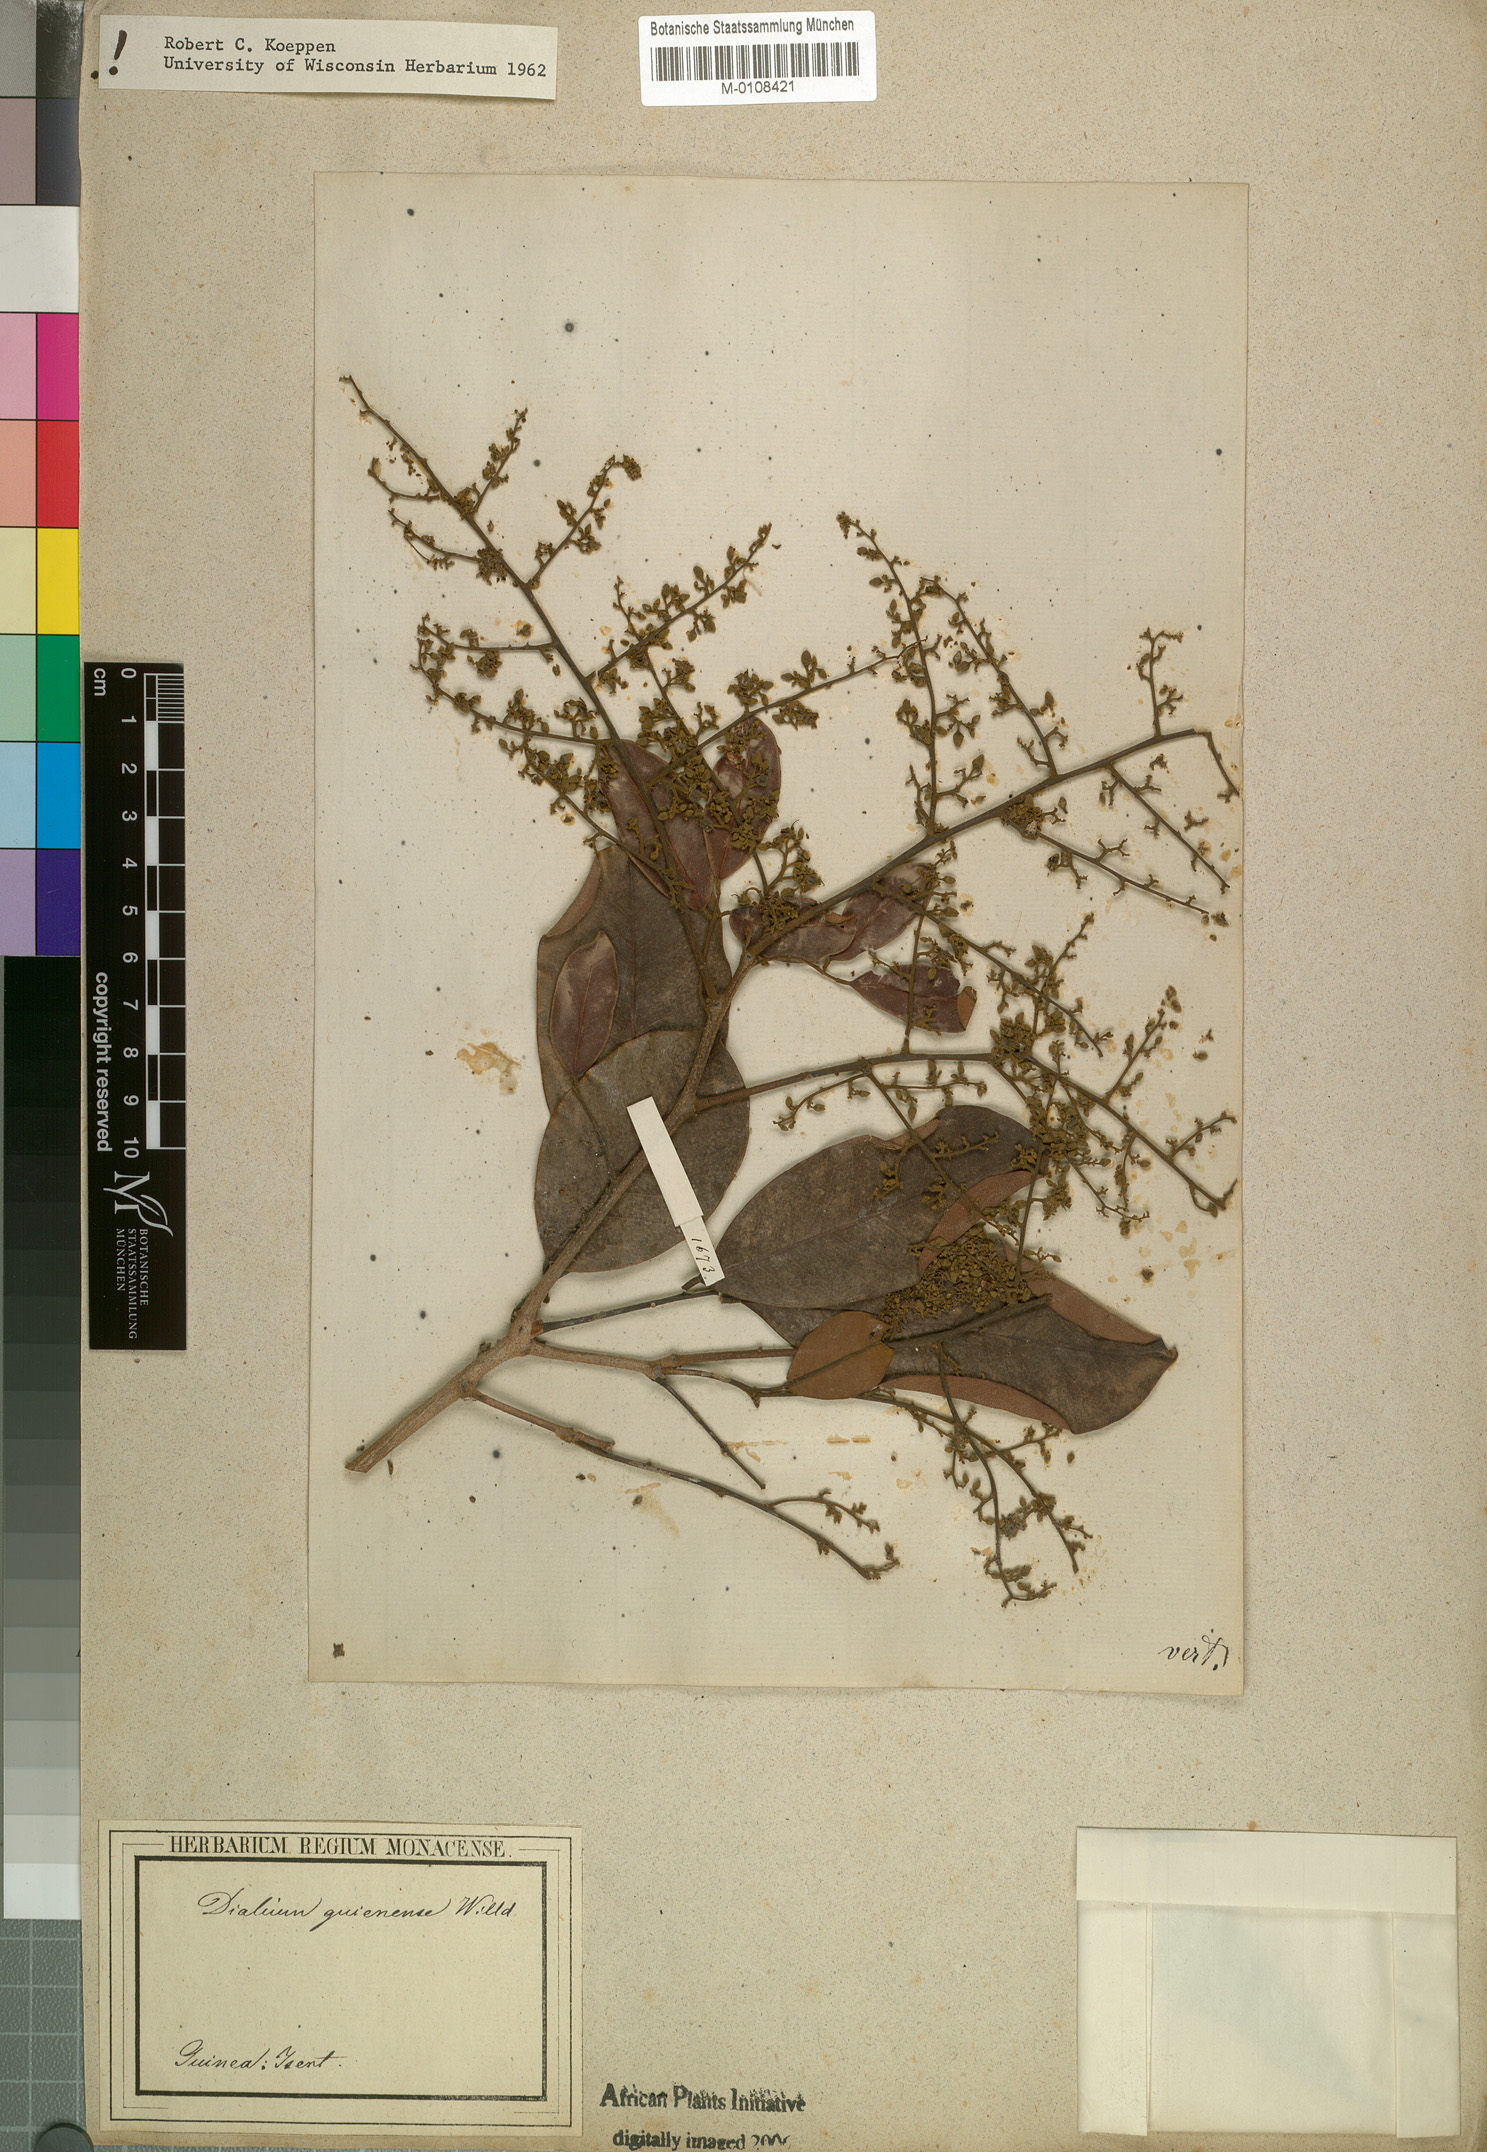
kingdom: Plantae
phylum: Tracheophyta
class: Magnoliopsida
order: Fabales
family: Fabaceae
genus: Dialium
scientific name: Dialium guineense
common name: Sierra leone-tamarind
